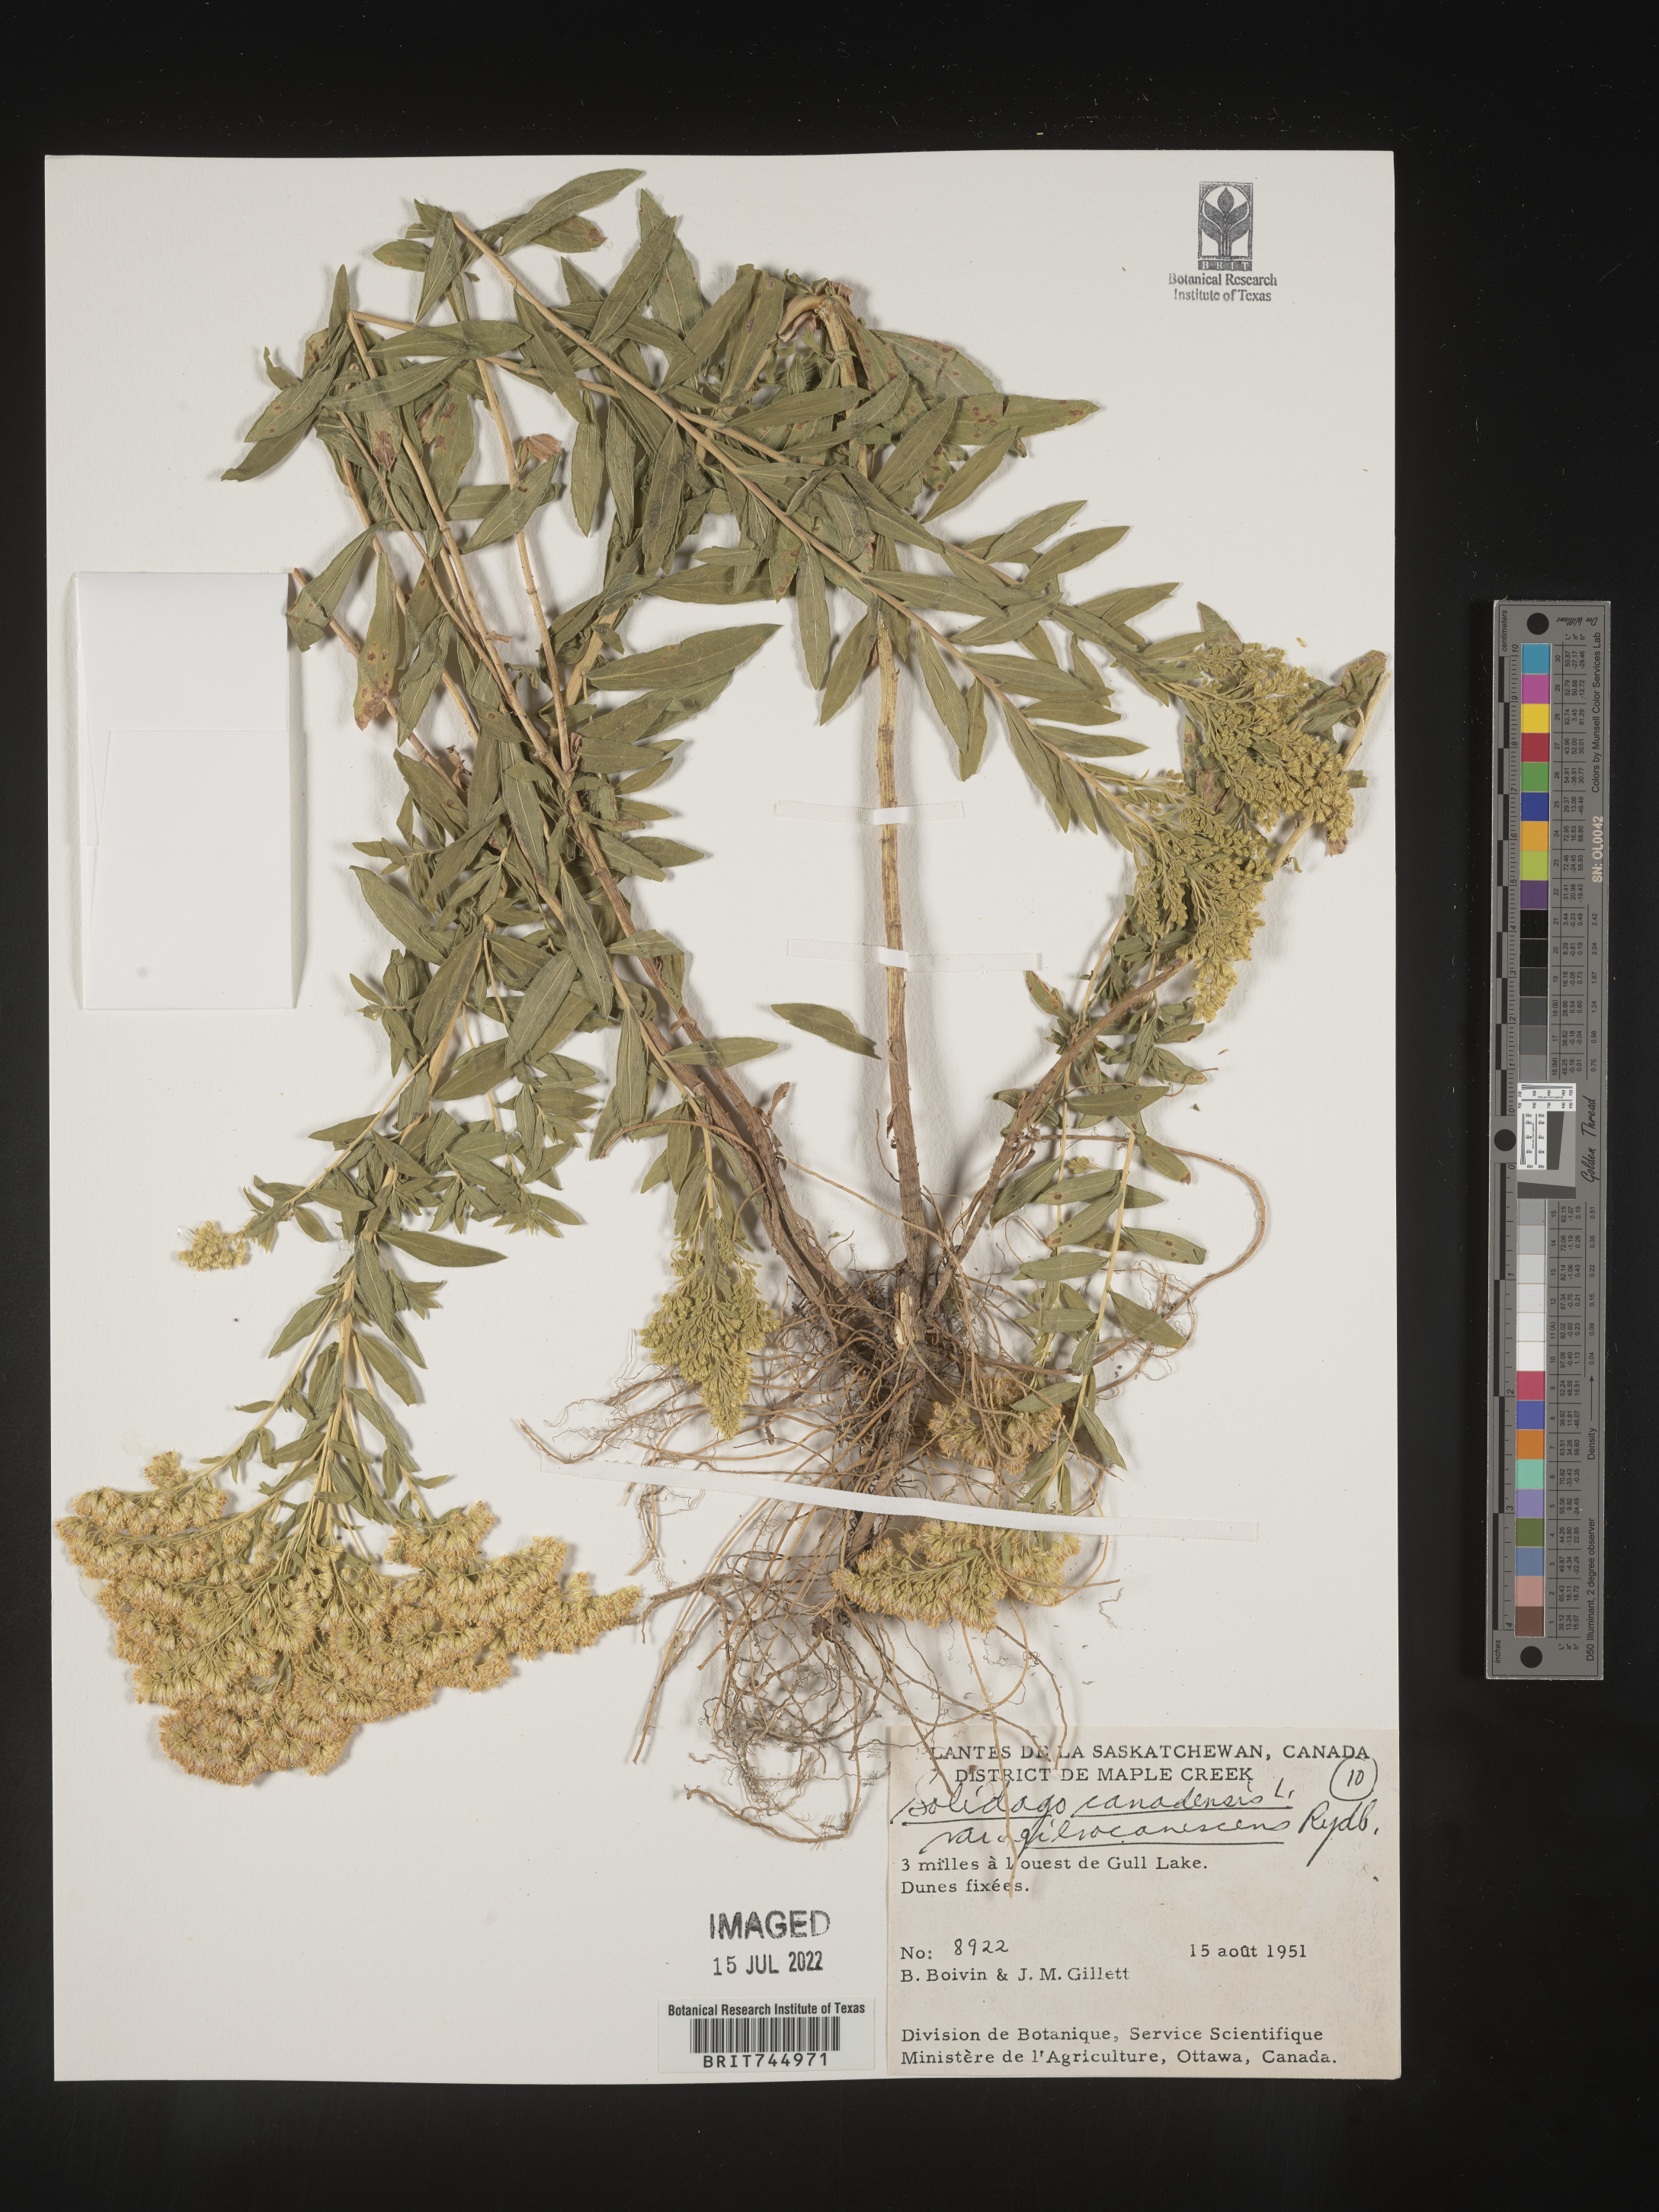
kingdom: Plantae
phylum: Tracheophyta
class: Magnoliopsida
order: Asterales
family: Asteraceae
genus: Solidago
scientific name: Solidago canadensis
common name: Canada goldenrod
